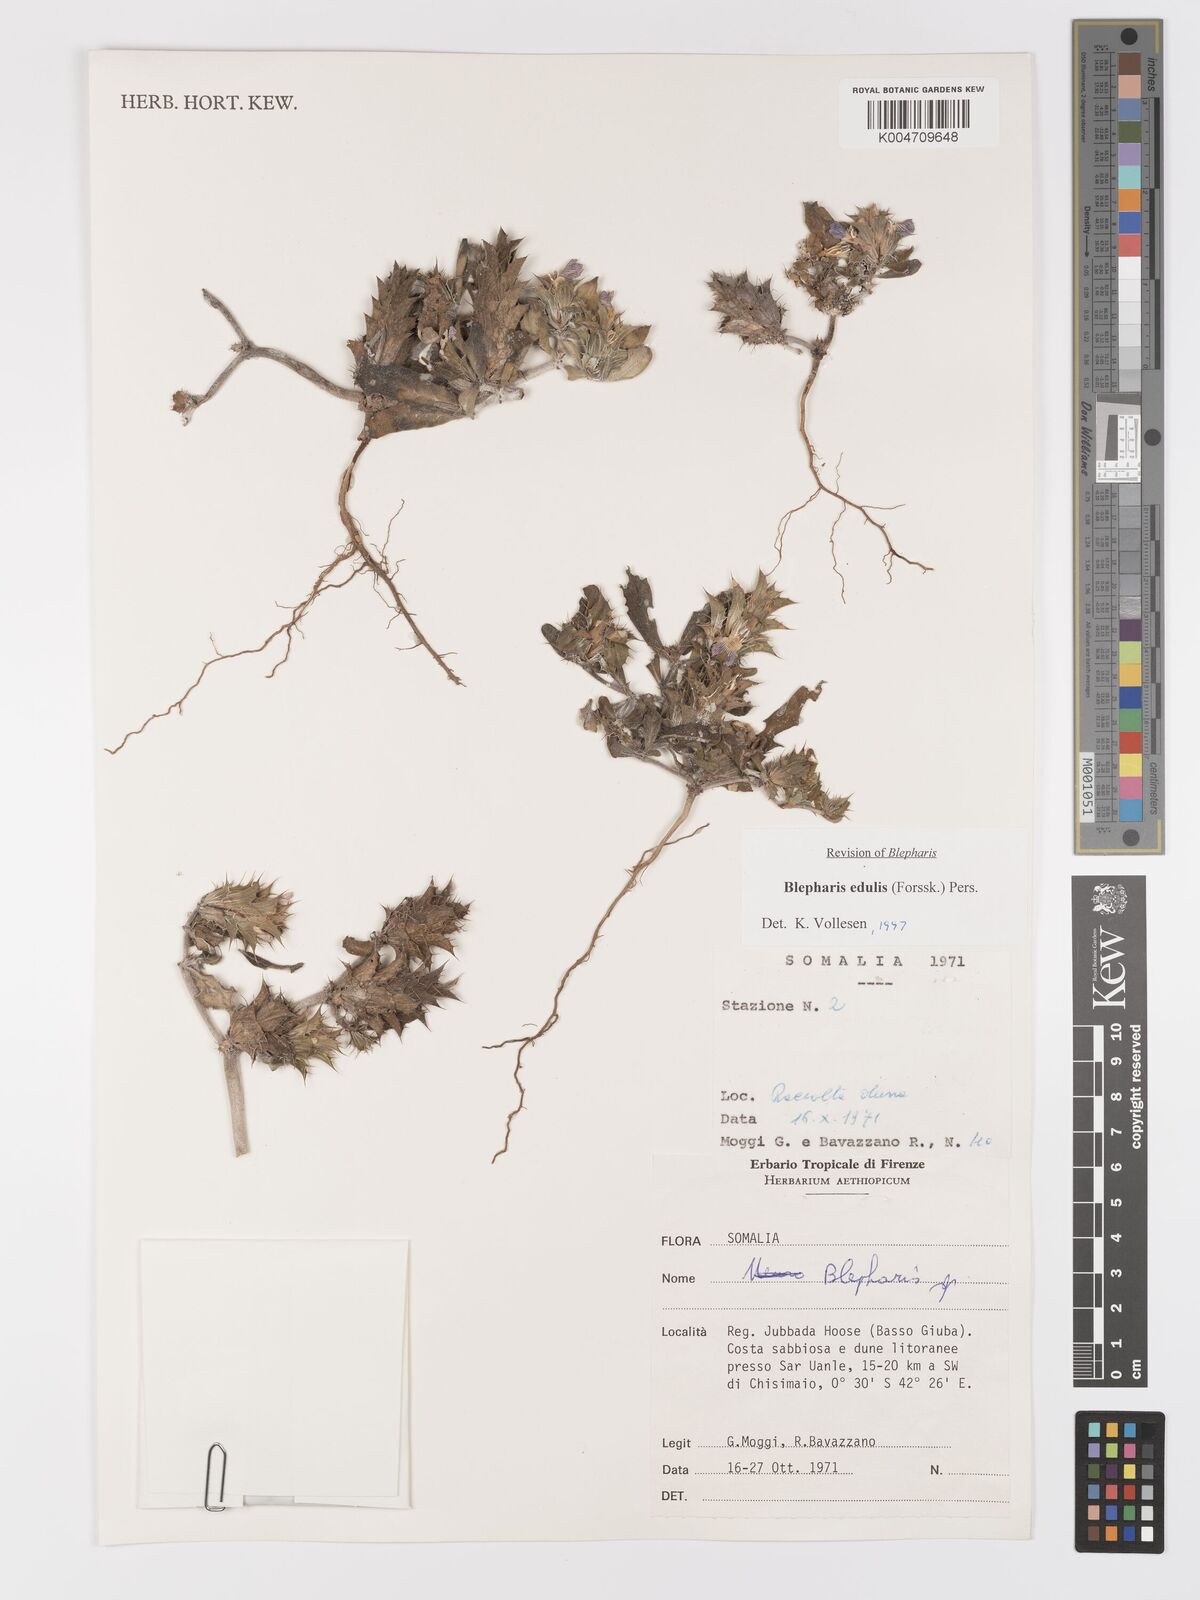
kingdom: Plantae
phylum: Tracheophyta
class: Magnoliopsida
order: Lamiales
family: Acanthaceae
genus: Blepharis
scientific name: Blepharis edulis
